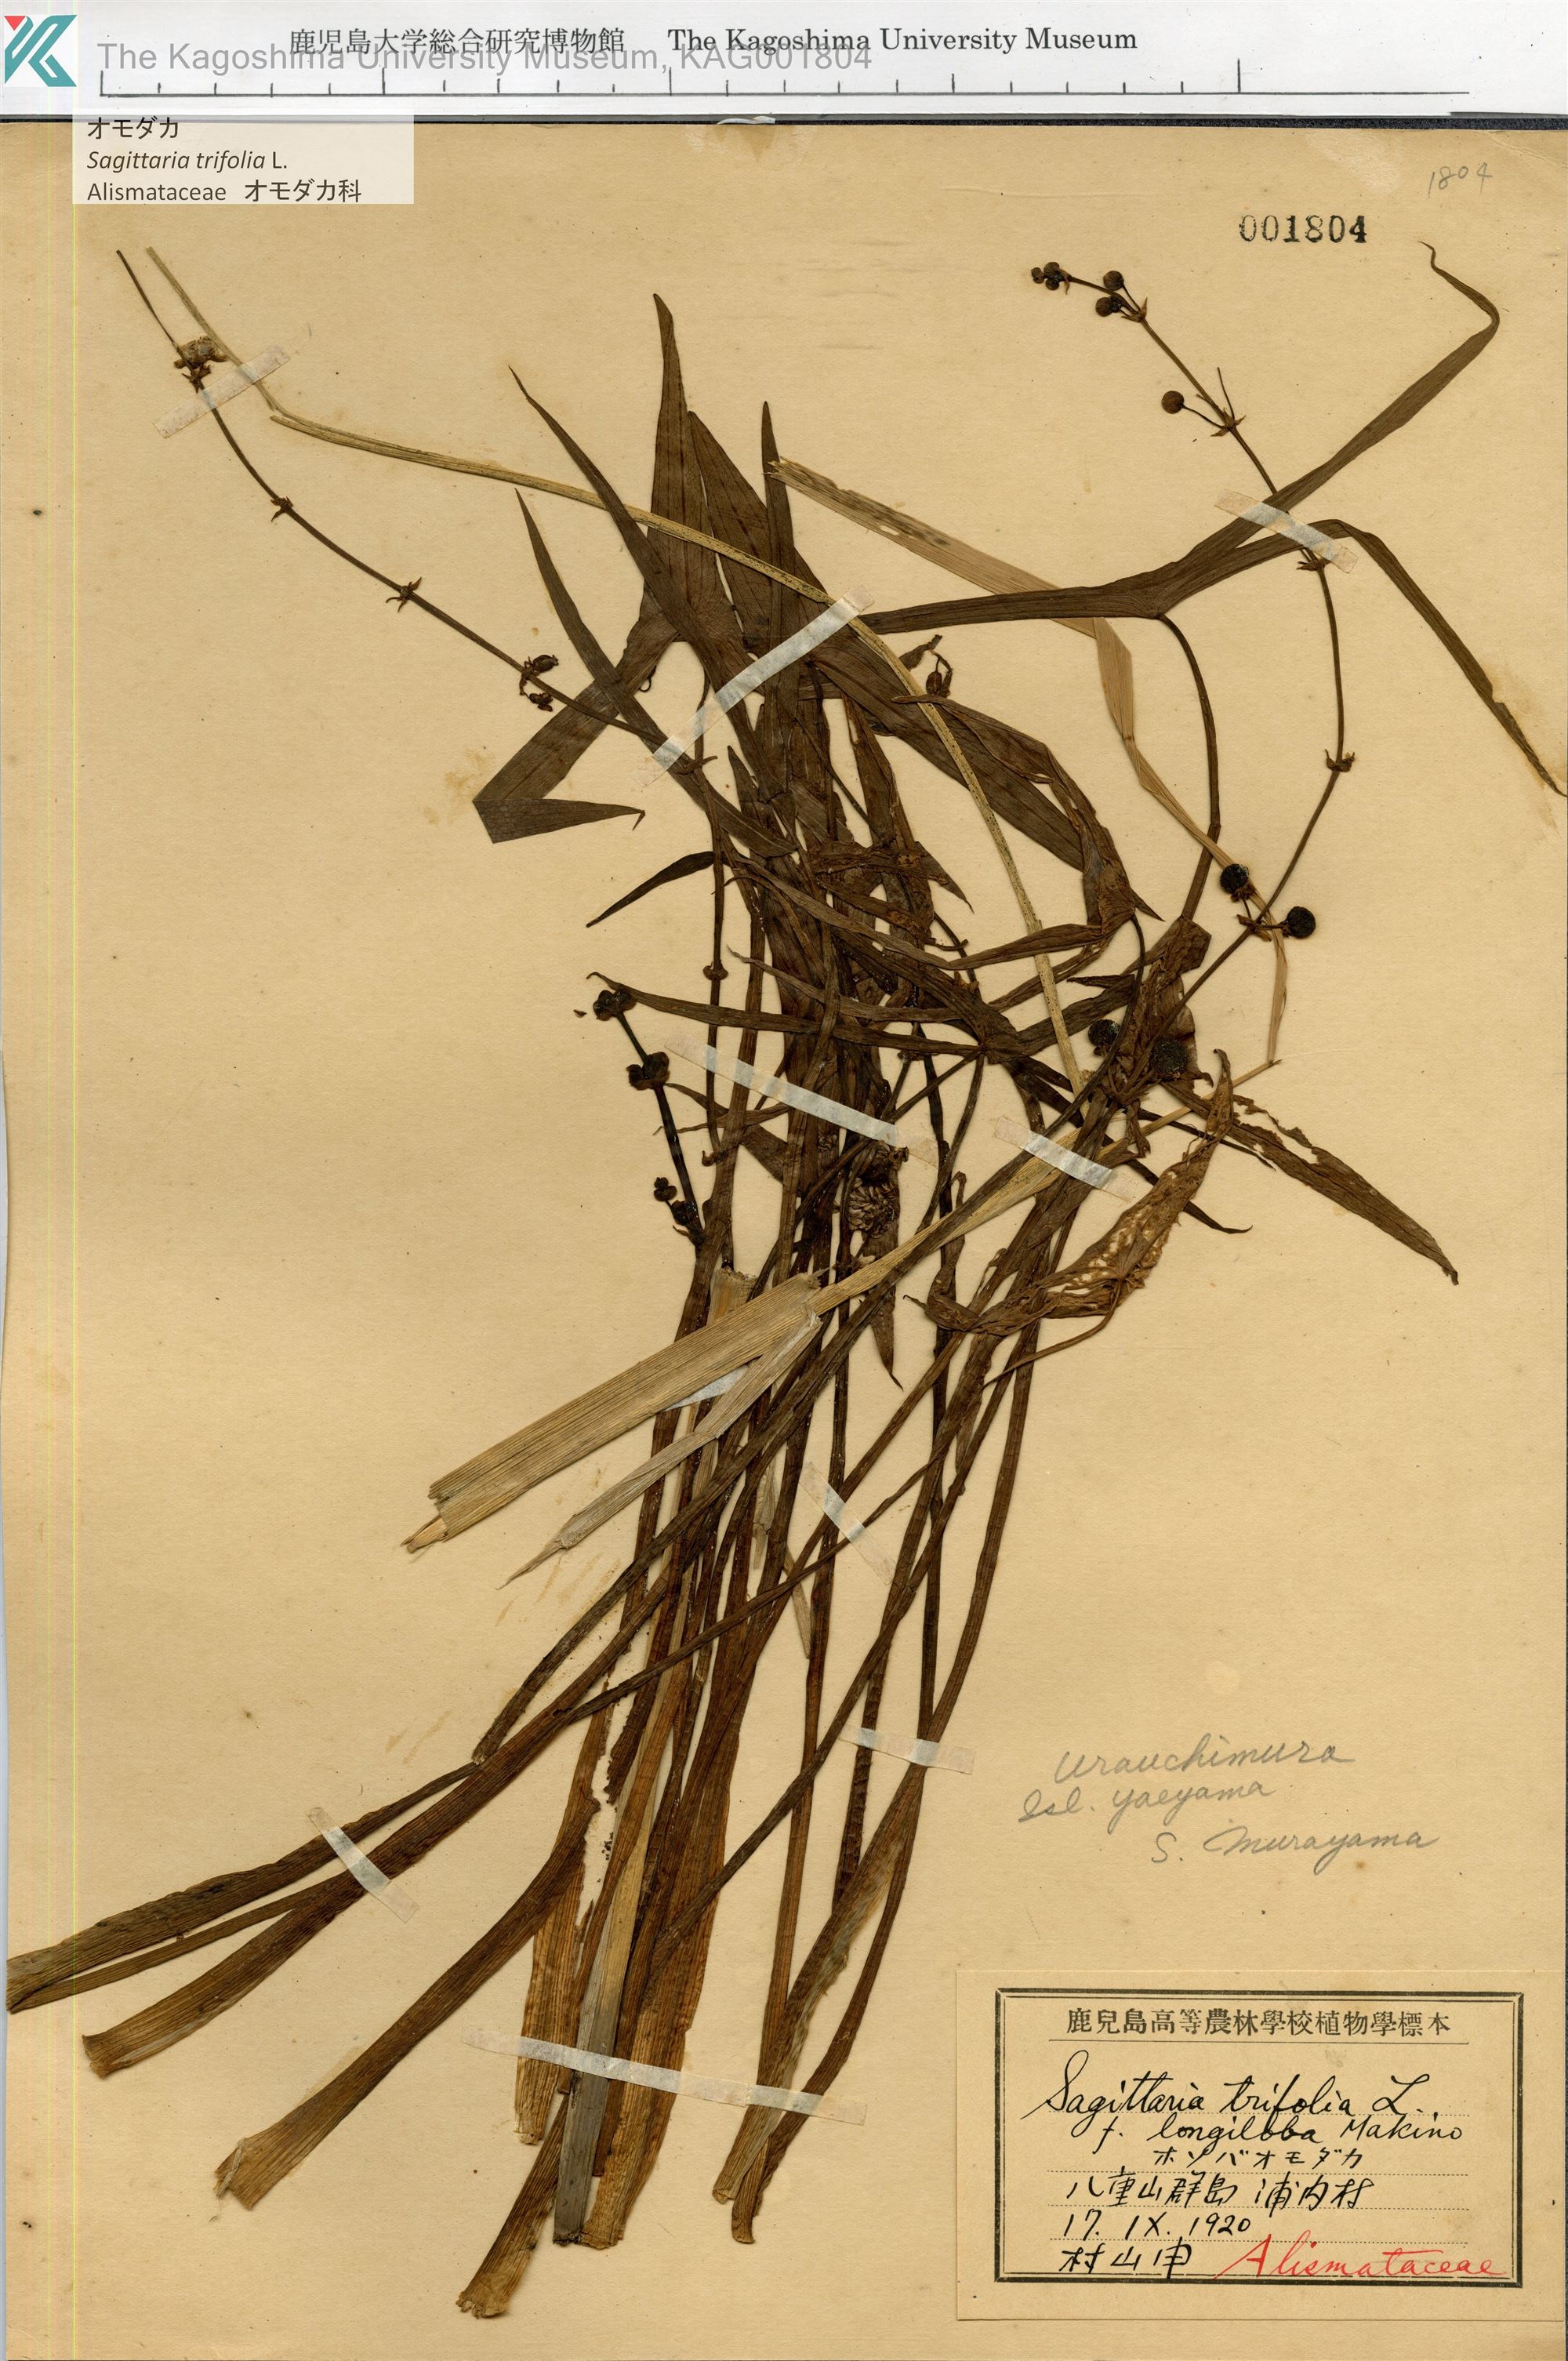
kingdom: Plantae
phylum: Tracheophyta
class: Liliopsida
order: Alismatales
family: Alismataceae
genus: Sagittaria
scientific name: Sagittaria trifolia
